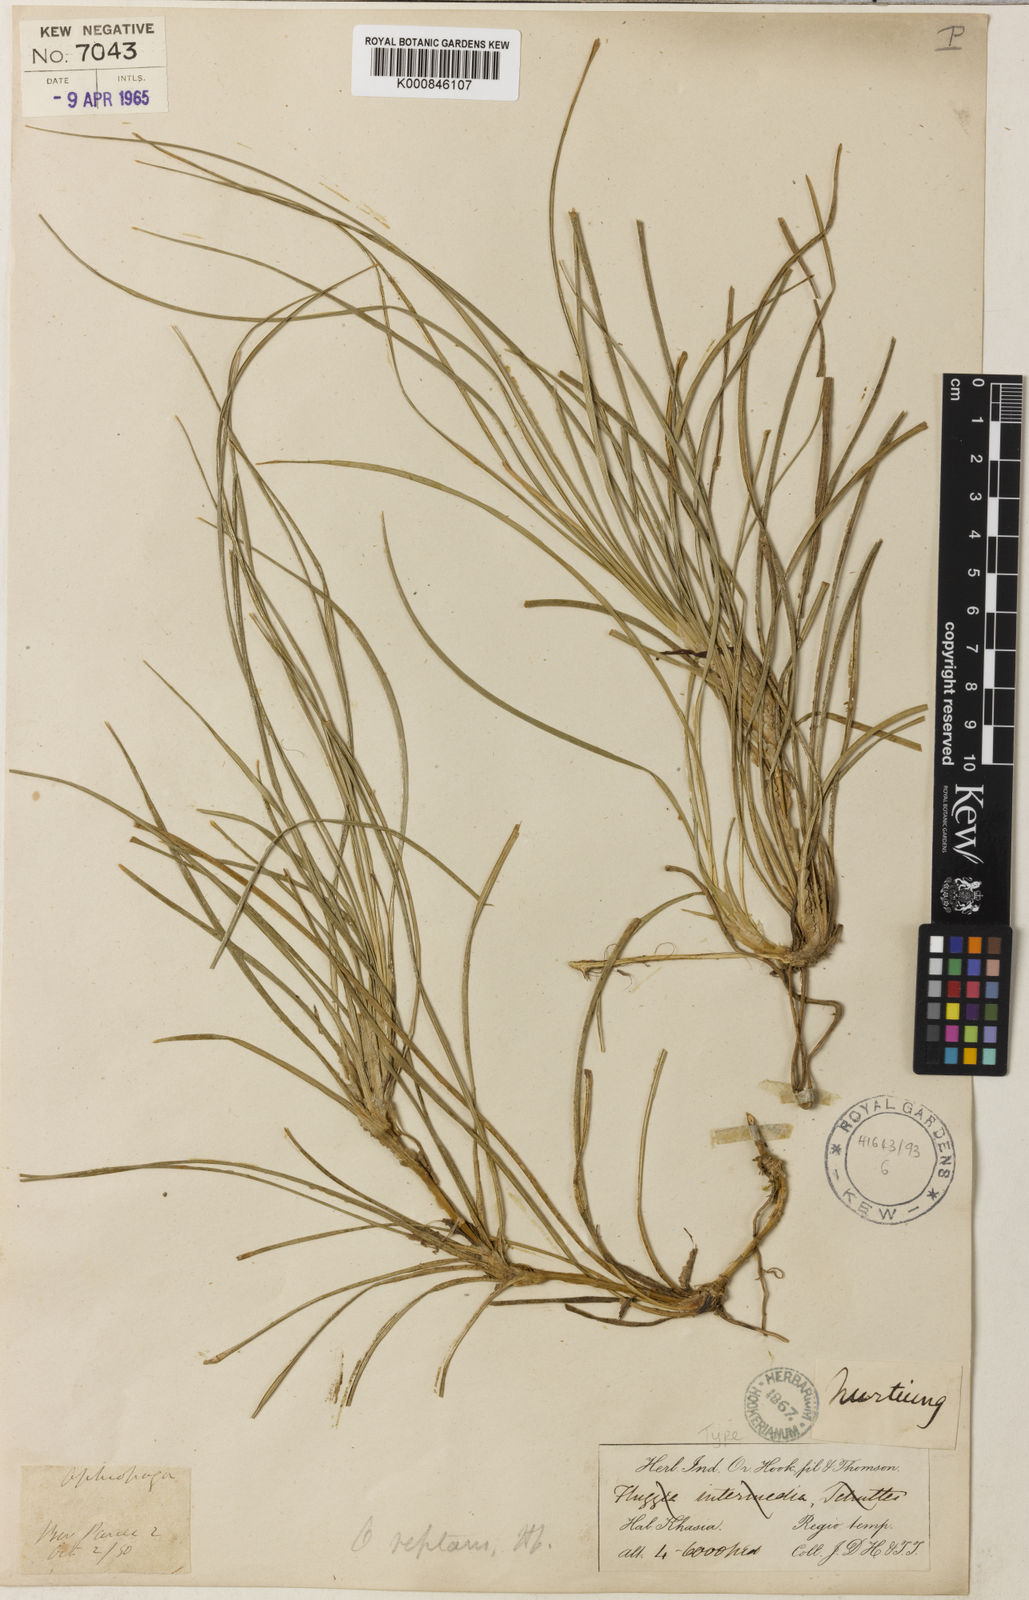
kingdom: Plantae
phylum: Tracheophyta
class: Liliopsida
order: Asparagales
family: Asparagaceae
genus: Ophiopogon
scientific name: Ophiopogon reptans
